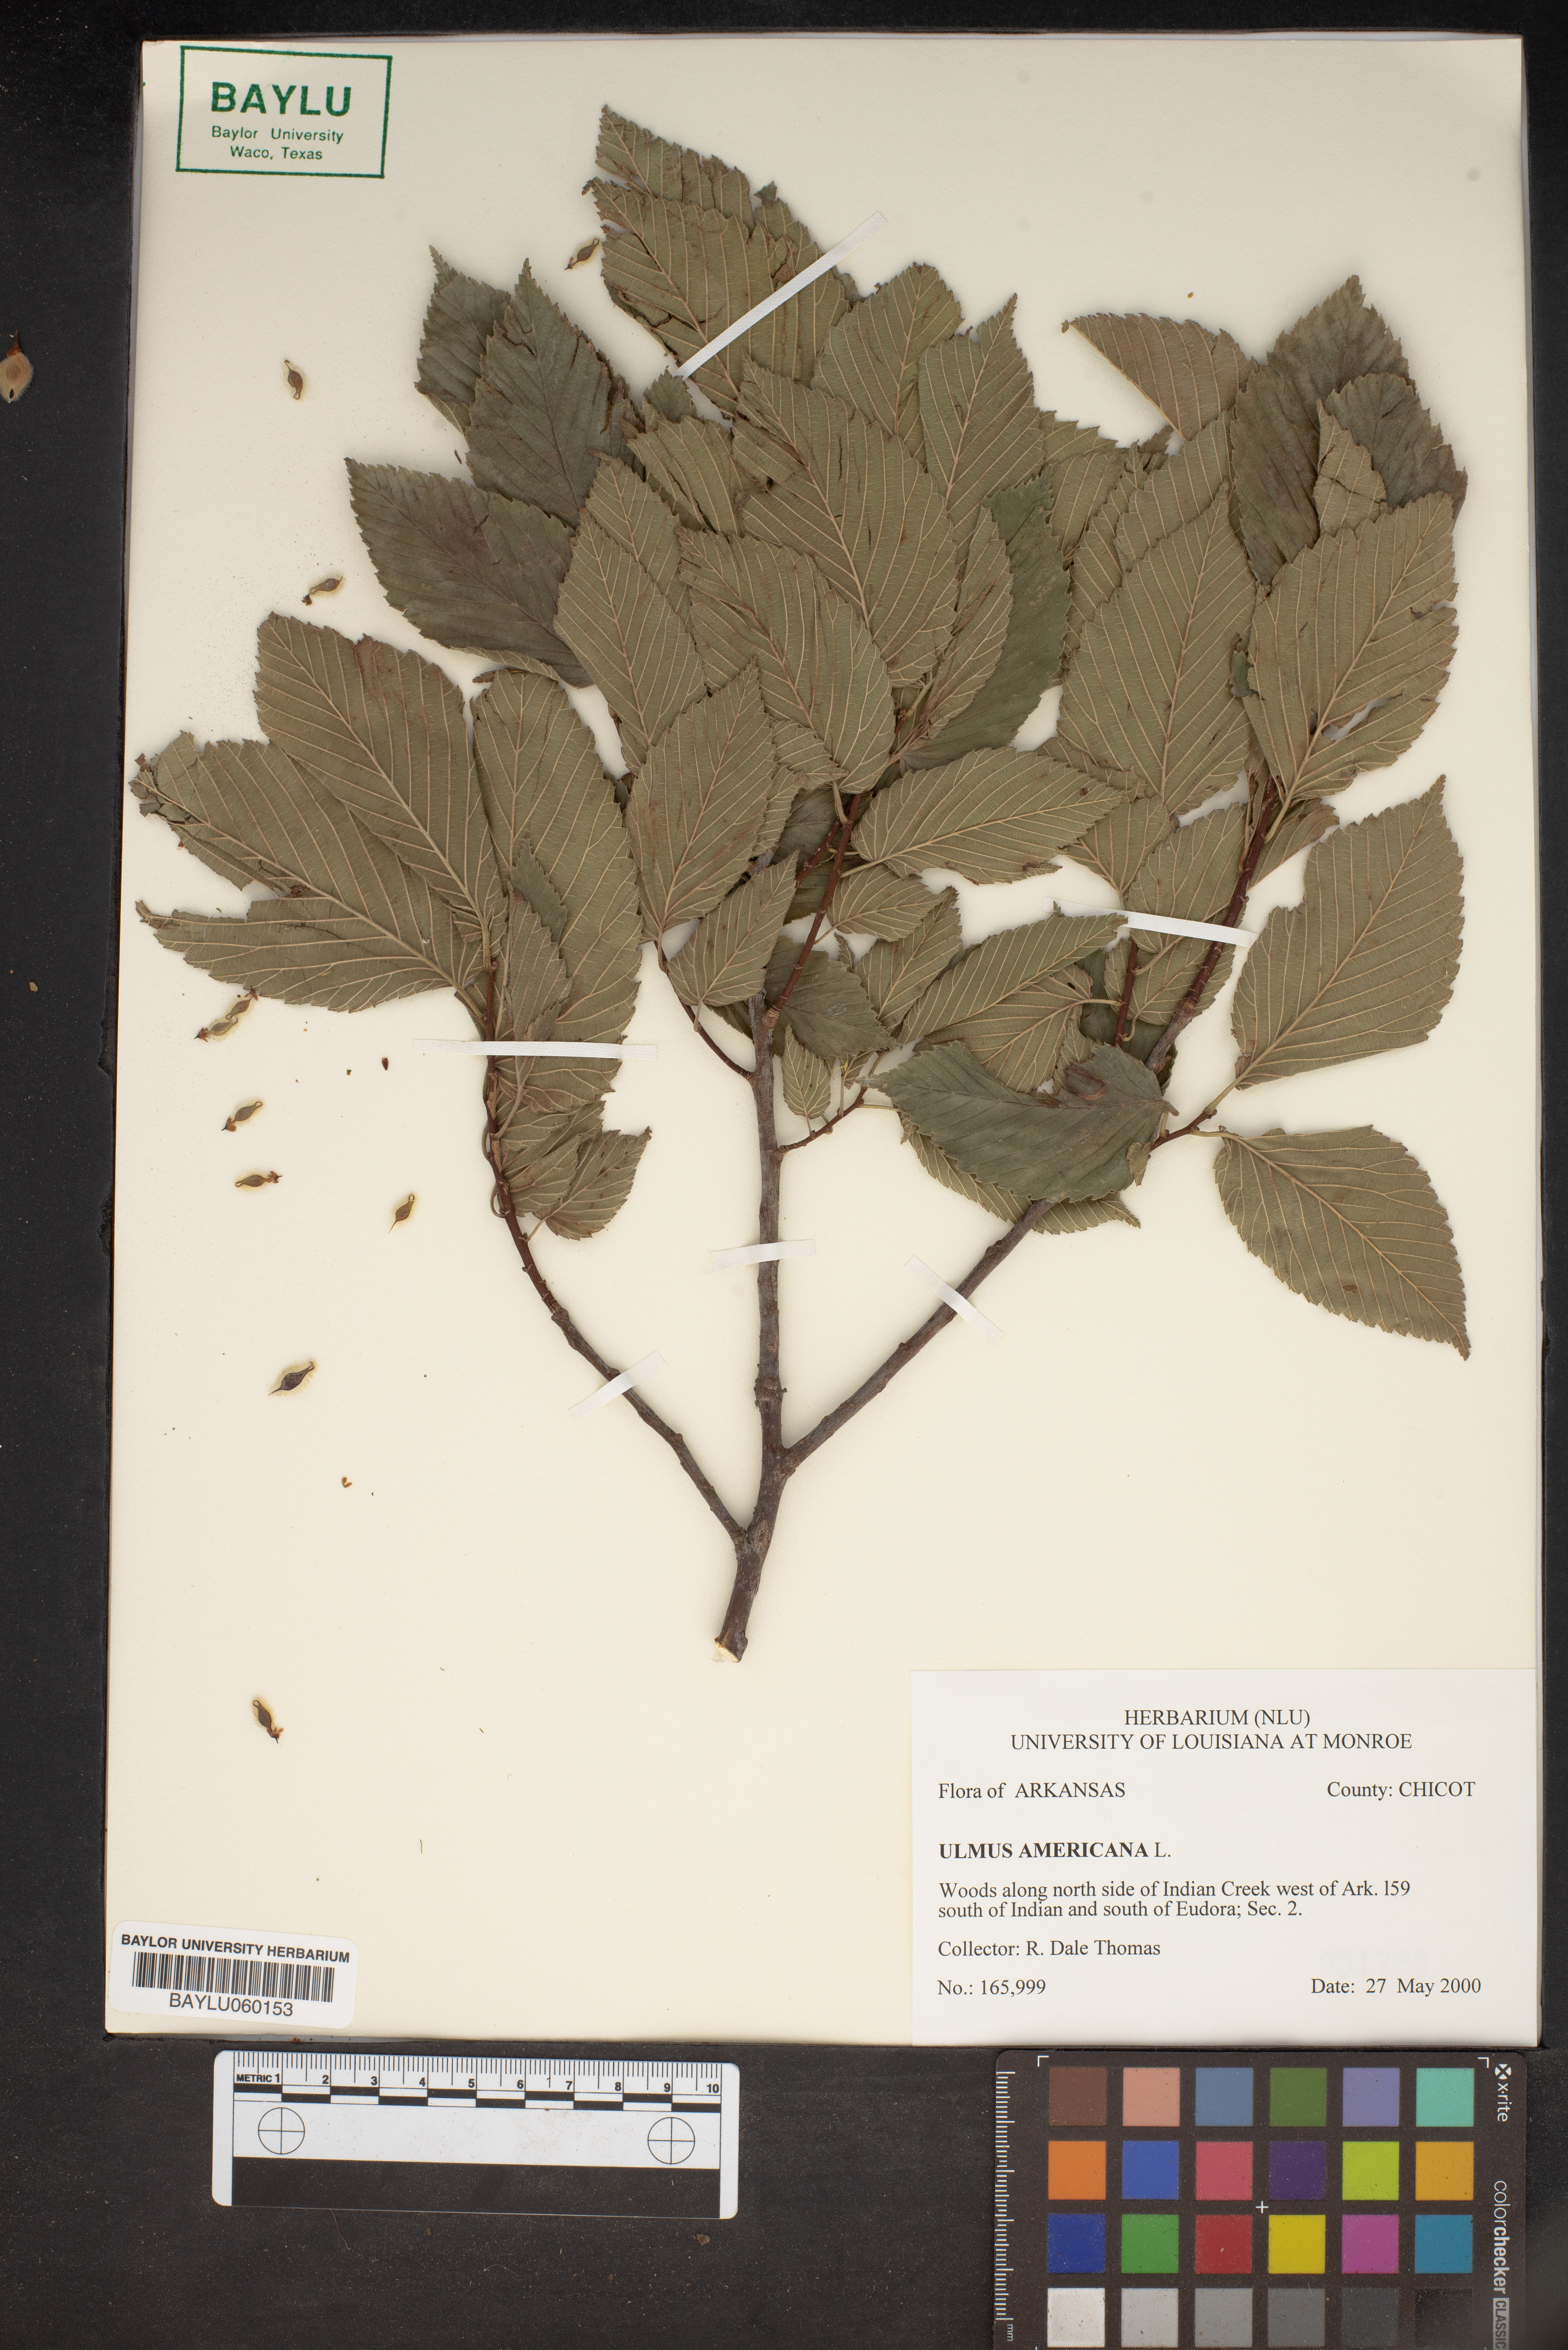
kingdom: Plantae
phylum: Tracheophyta
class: Magnoliopsida
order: Rosales
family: Ulmaceae
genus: Ulmus
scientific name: Ulmus americana
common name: American elm
